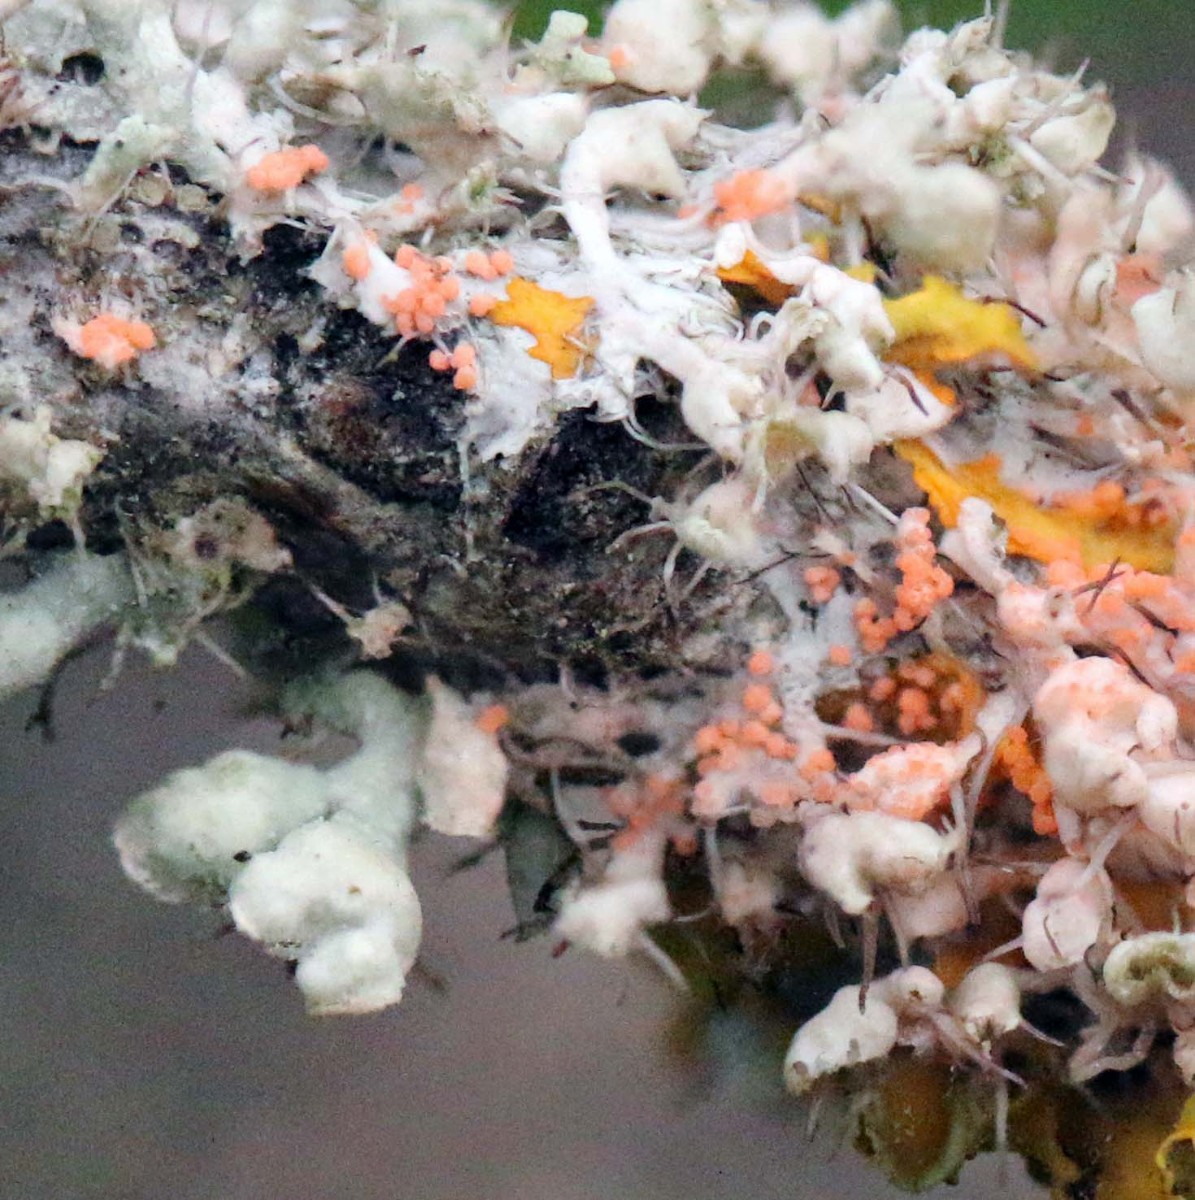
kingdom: Fungi
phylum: Basidiomycota
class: Agaricomycetes
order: Corticiales
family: Corticiaceae
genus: Erythricium
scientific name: Erythricium aurantiacum
